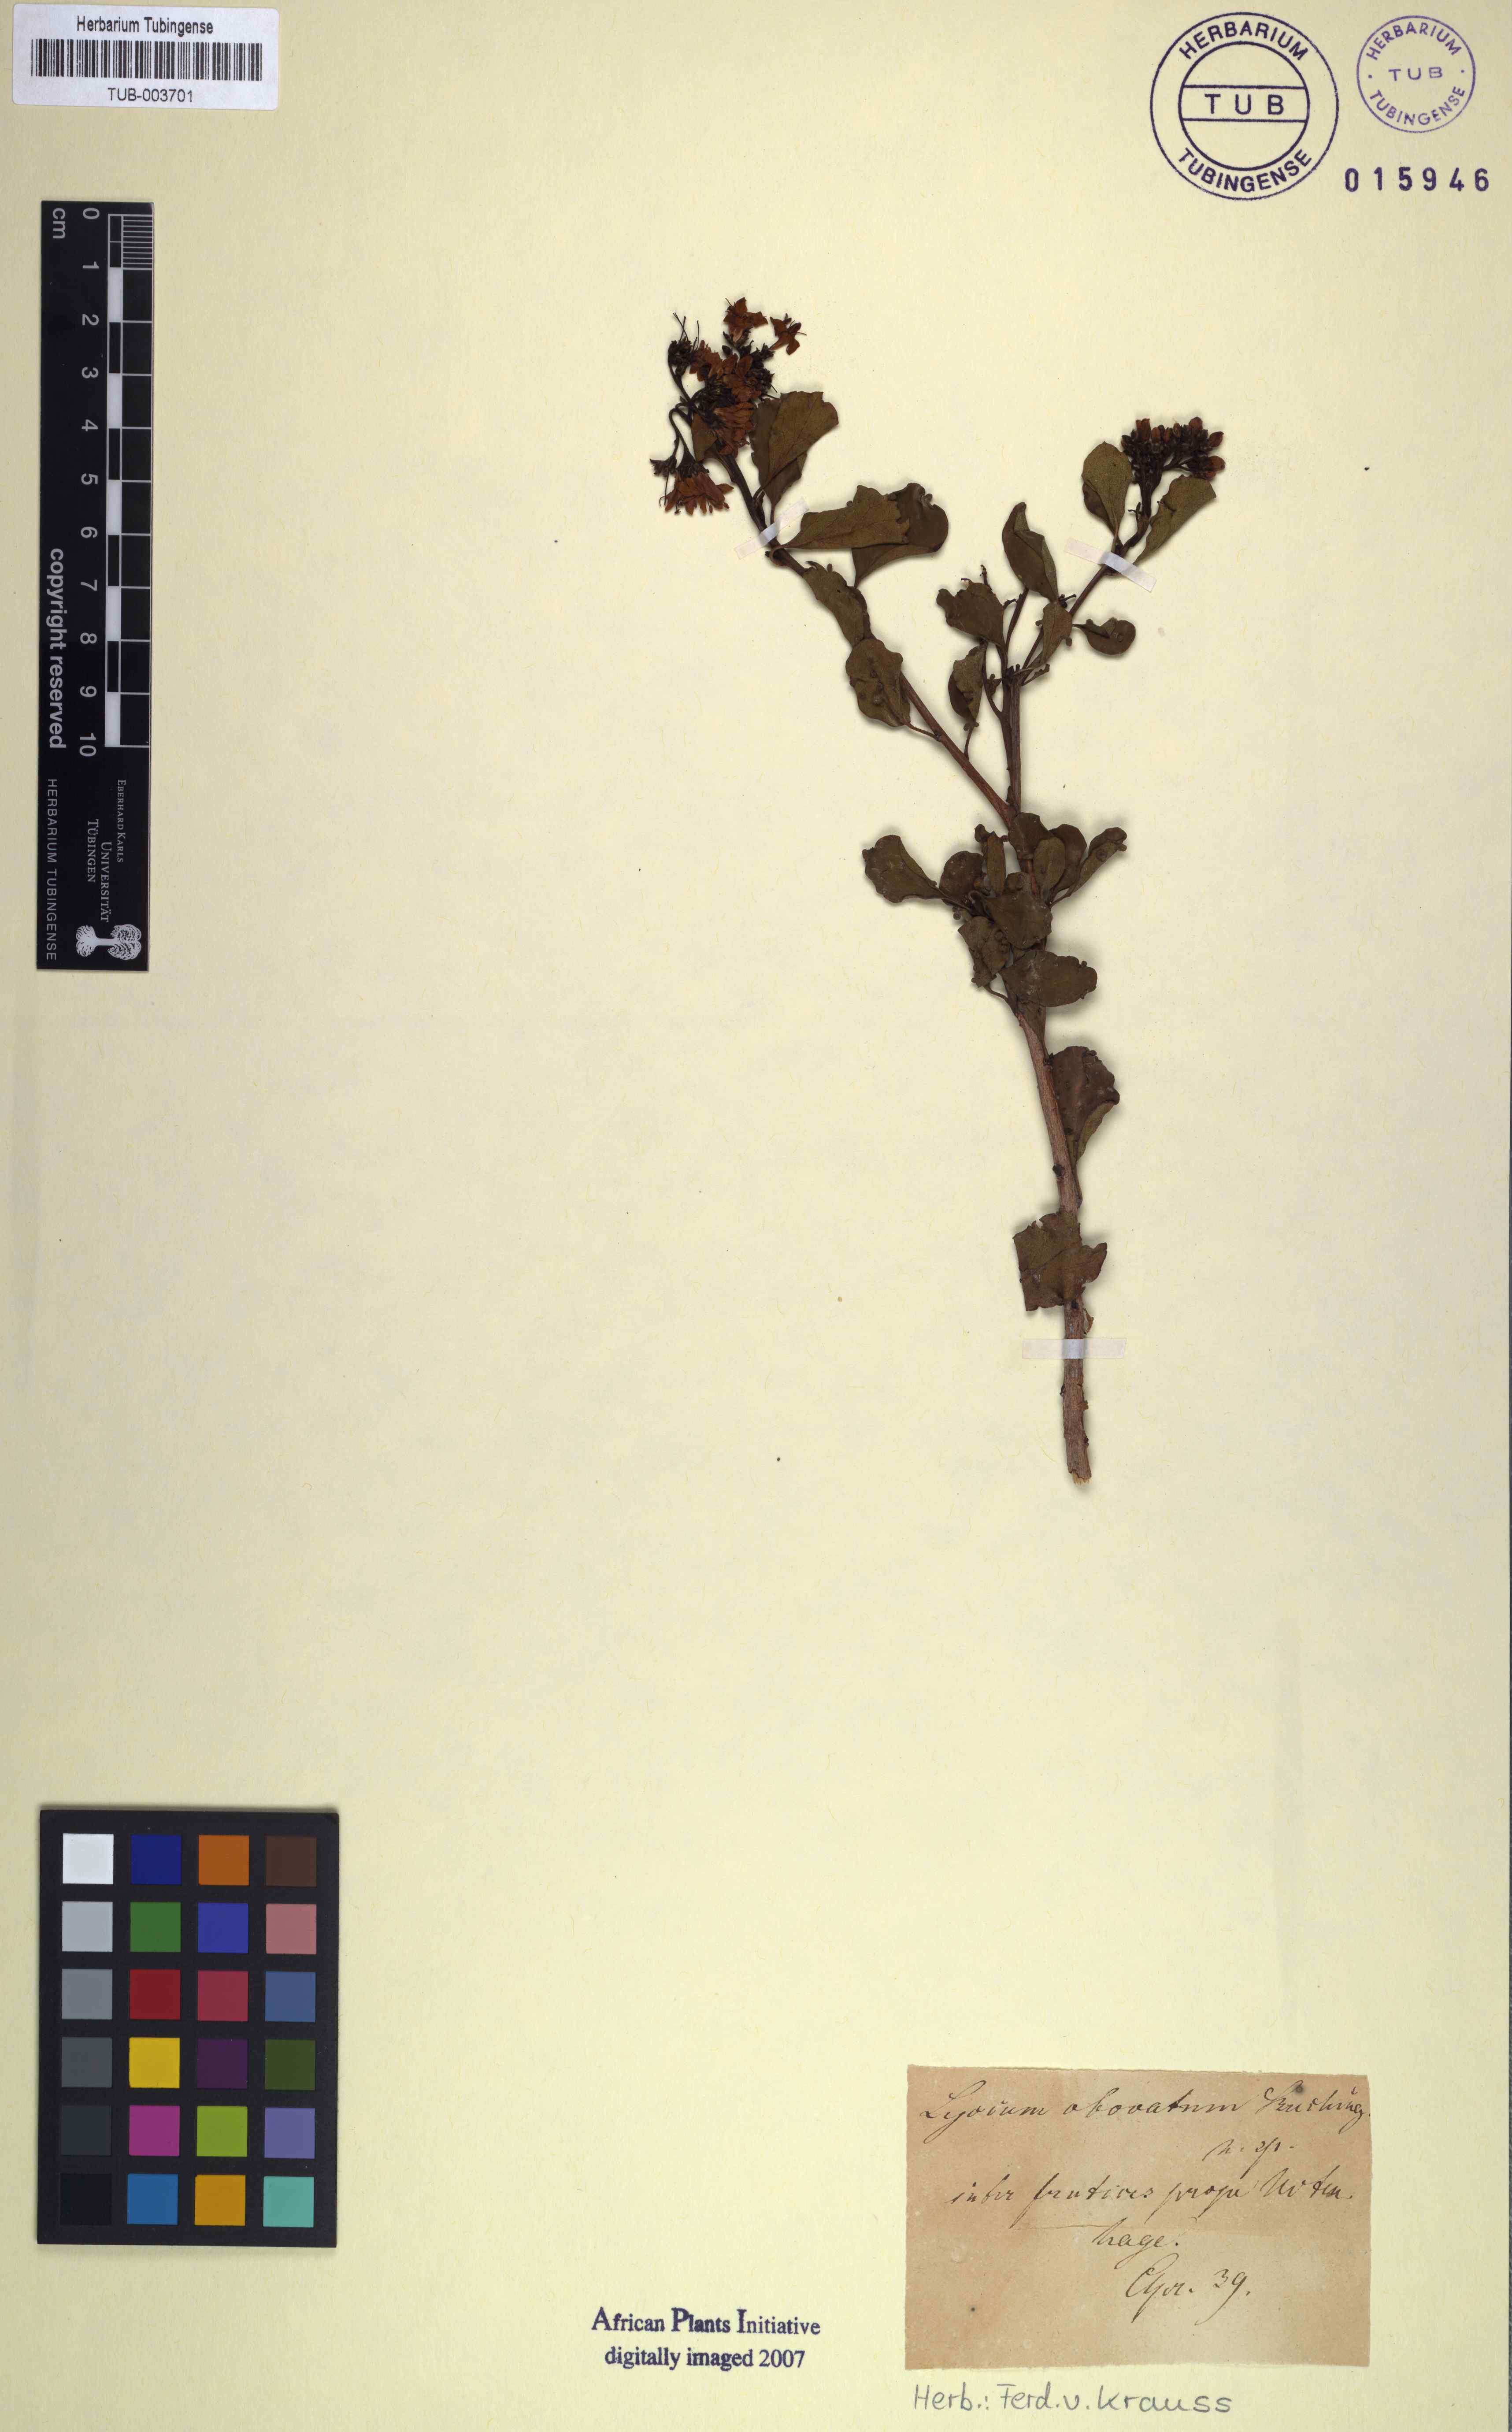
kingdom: Plantae
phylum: Tracheophyta
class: Magnoliopsida
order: Boraginales
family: Ehretiaceae
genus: Ehretia
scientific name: Ehretia capensis
